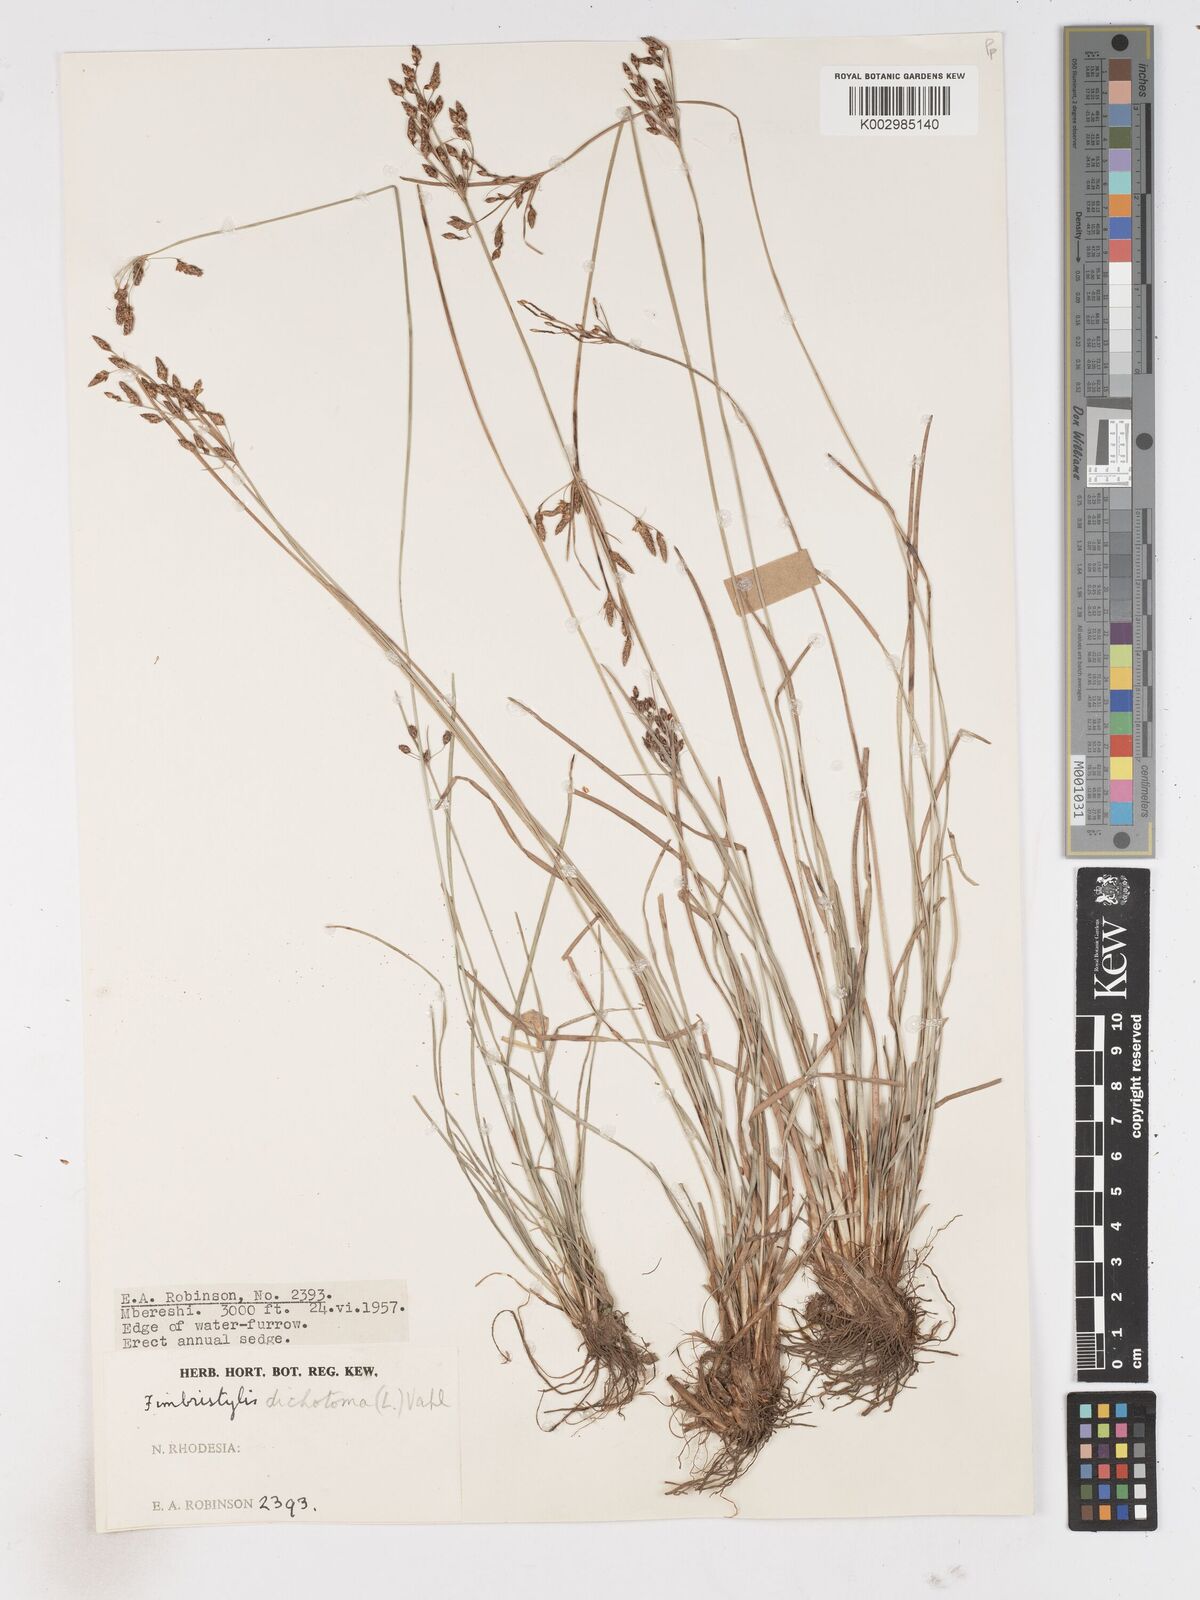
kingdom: Plantae
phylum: Tracheophyta
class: Liliopsida
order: Poales
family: Cyperaceae
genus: Fimbristylis
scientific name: Fimbristylis dichotoma
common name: Forked fimbry
